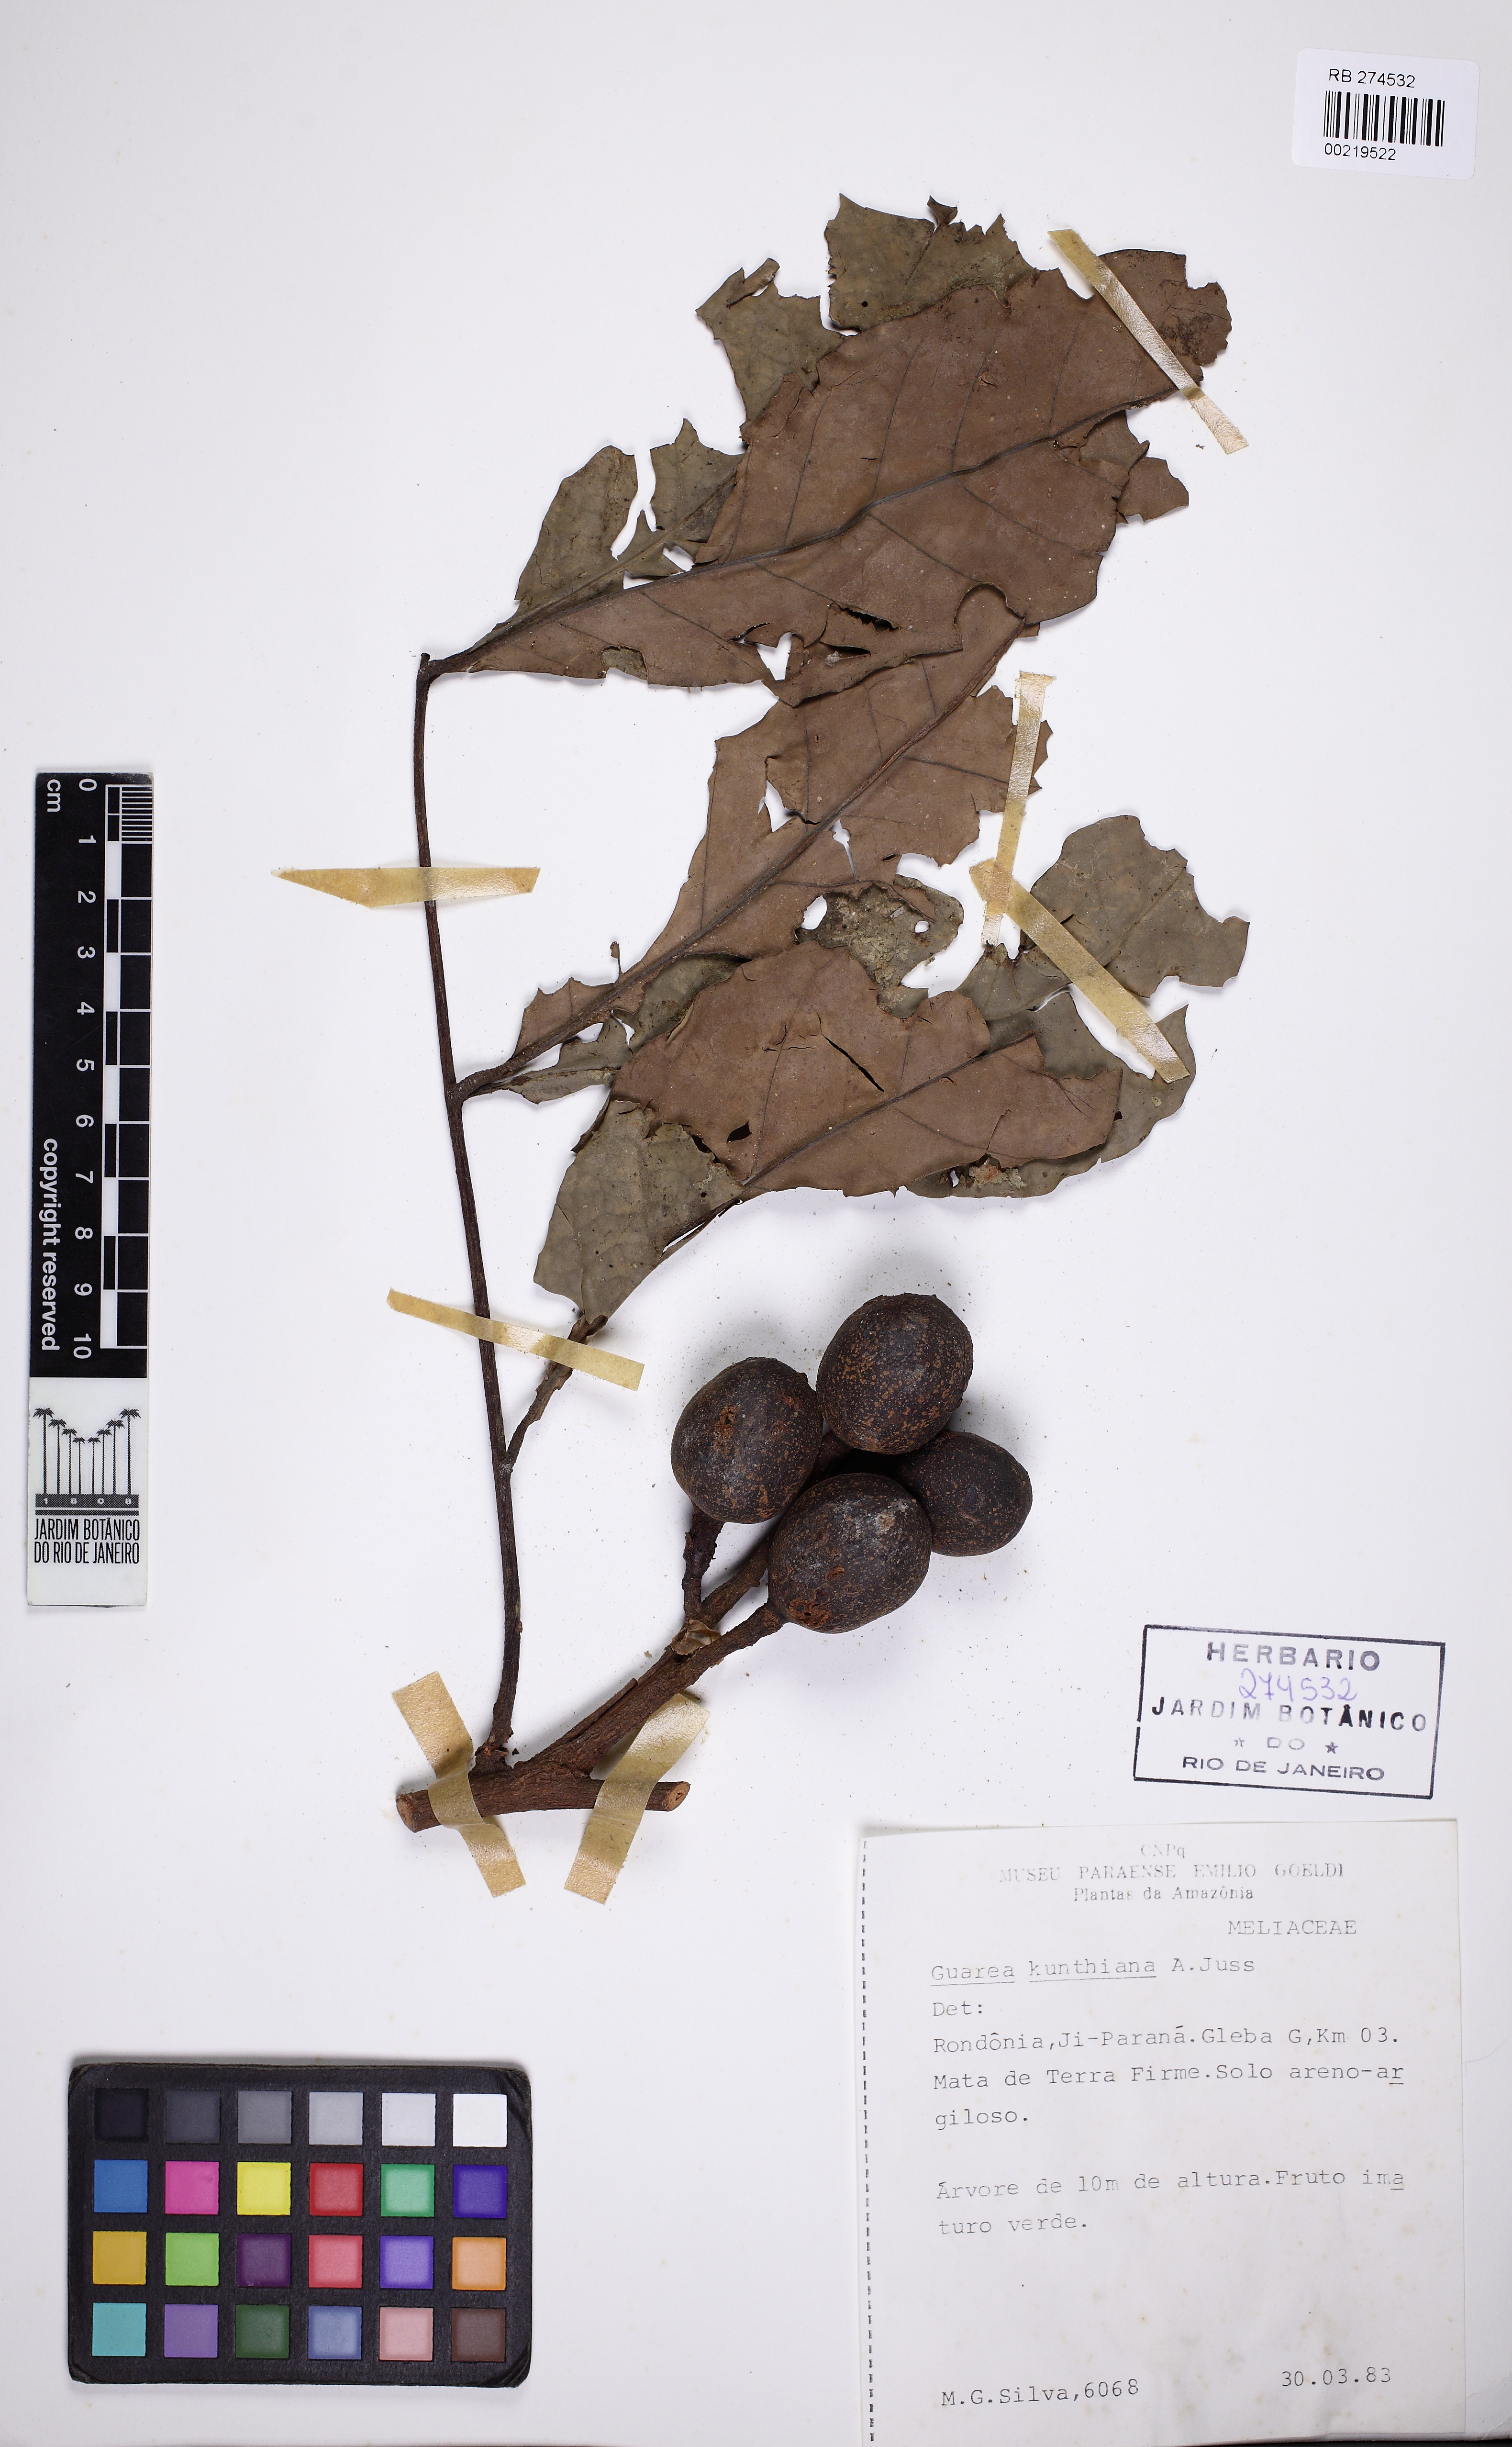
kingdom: Plantae
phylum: Tracheophyta
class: Magnoliopsida
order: Sapindales
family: Meliaceae
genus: Guarea
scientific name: Guarea kunthiana
